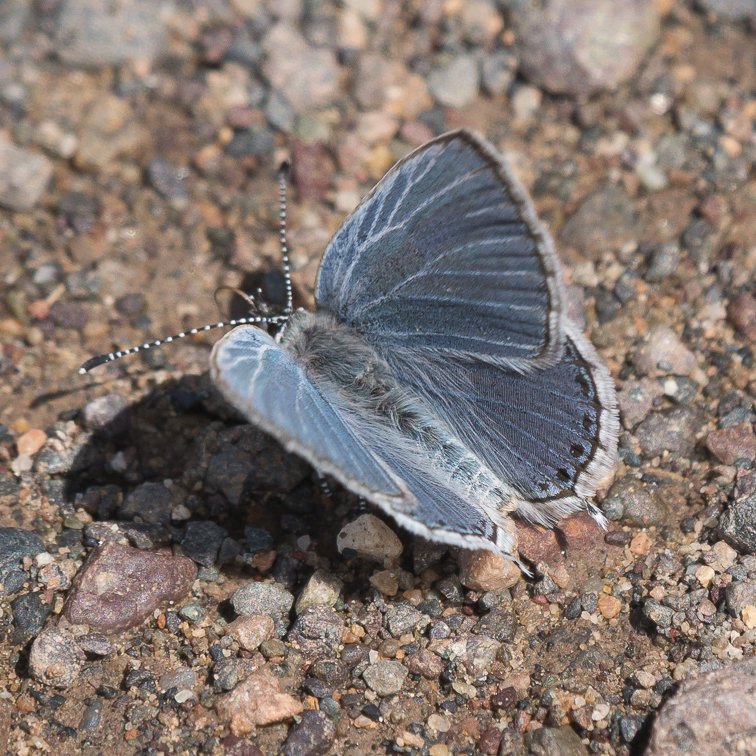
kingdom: Animalia
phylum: Arthropoda
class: Insecta
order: Lepidoptera
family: Lycaenidae
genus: Elkalyce
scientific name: Elkalyce amyntula
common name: Western Tailed-Blue
